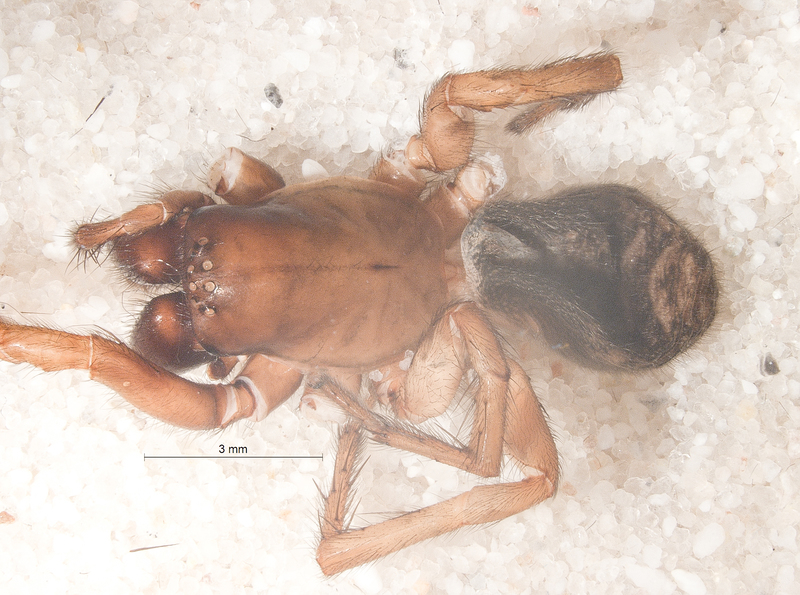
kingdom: Animalia
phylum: Arthropoda
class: Arachnida
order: Araneae
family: Agelenidae
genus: Coelotes
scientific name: Coelotes terrestris
